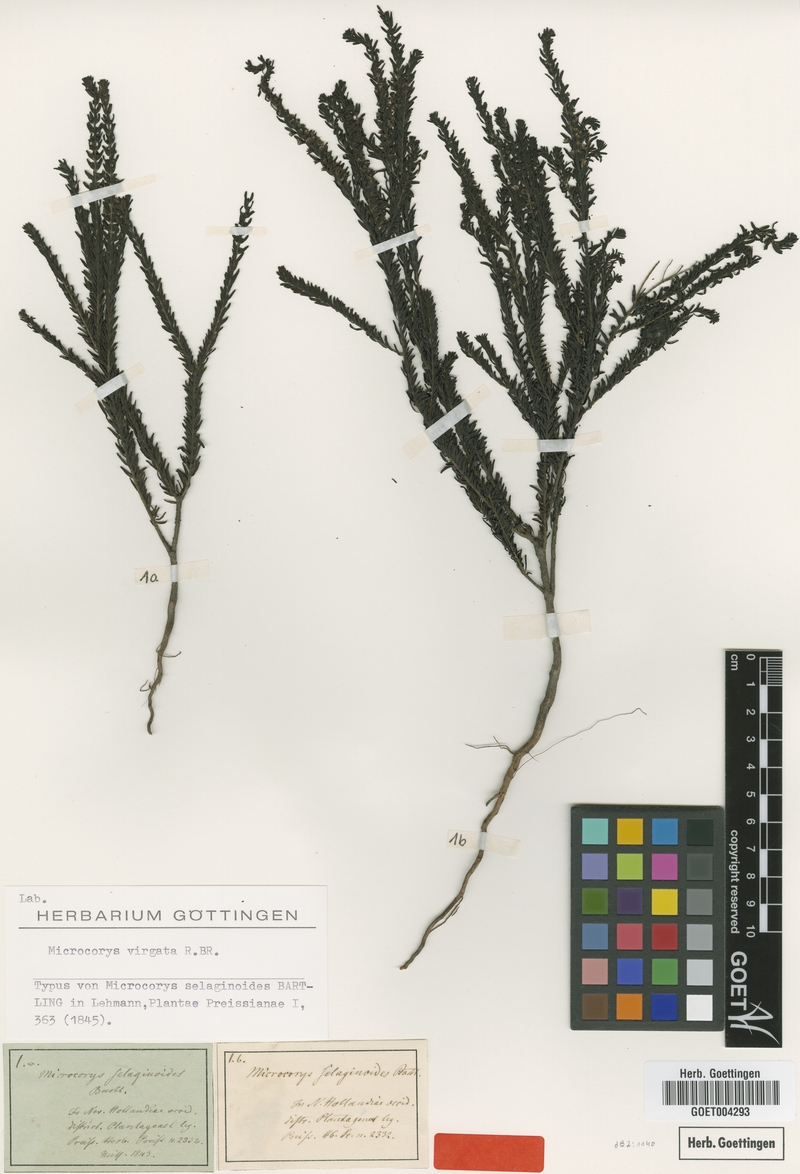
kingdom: Plantae
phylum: Tracheophyta
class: Magnoliopsida
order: Lamiales
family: Lamiaceae
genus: Microcorys
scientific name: Microcorys virgata
